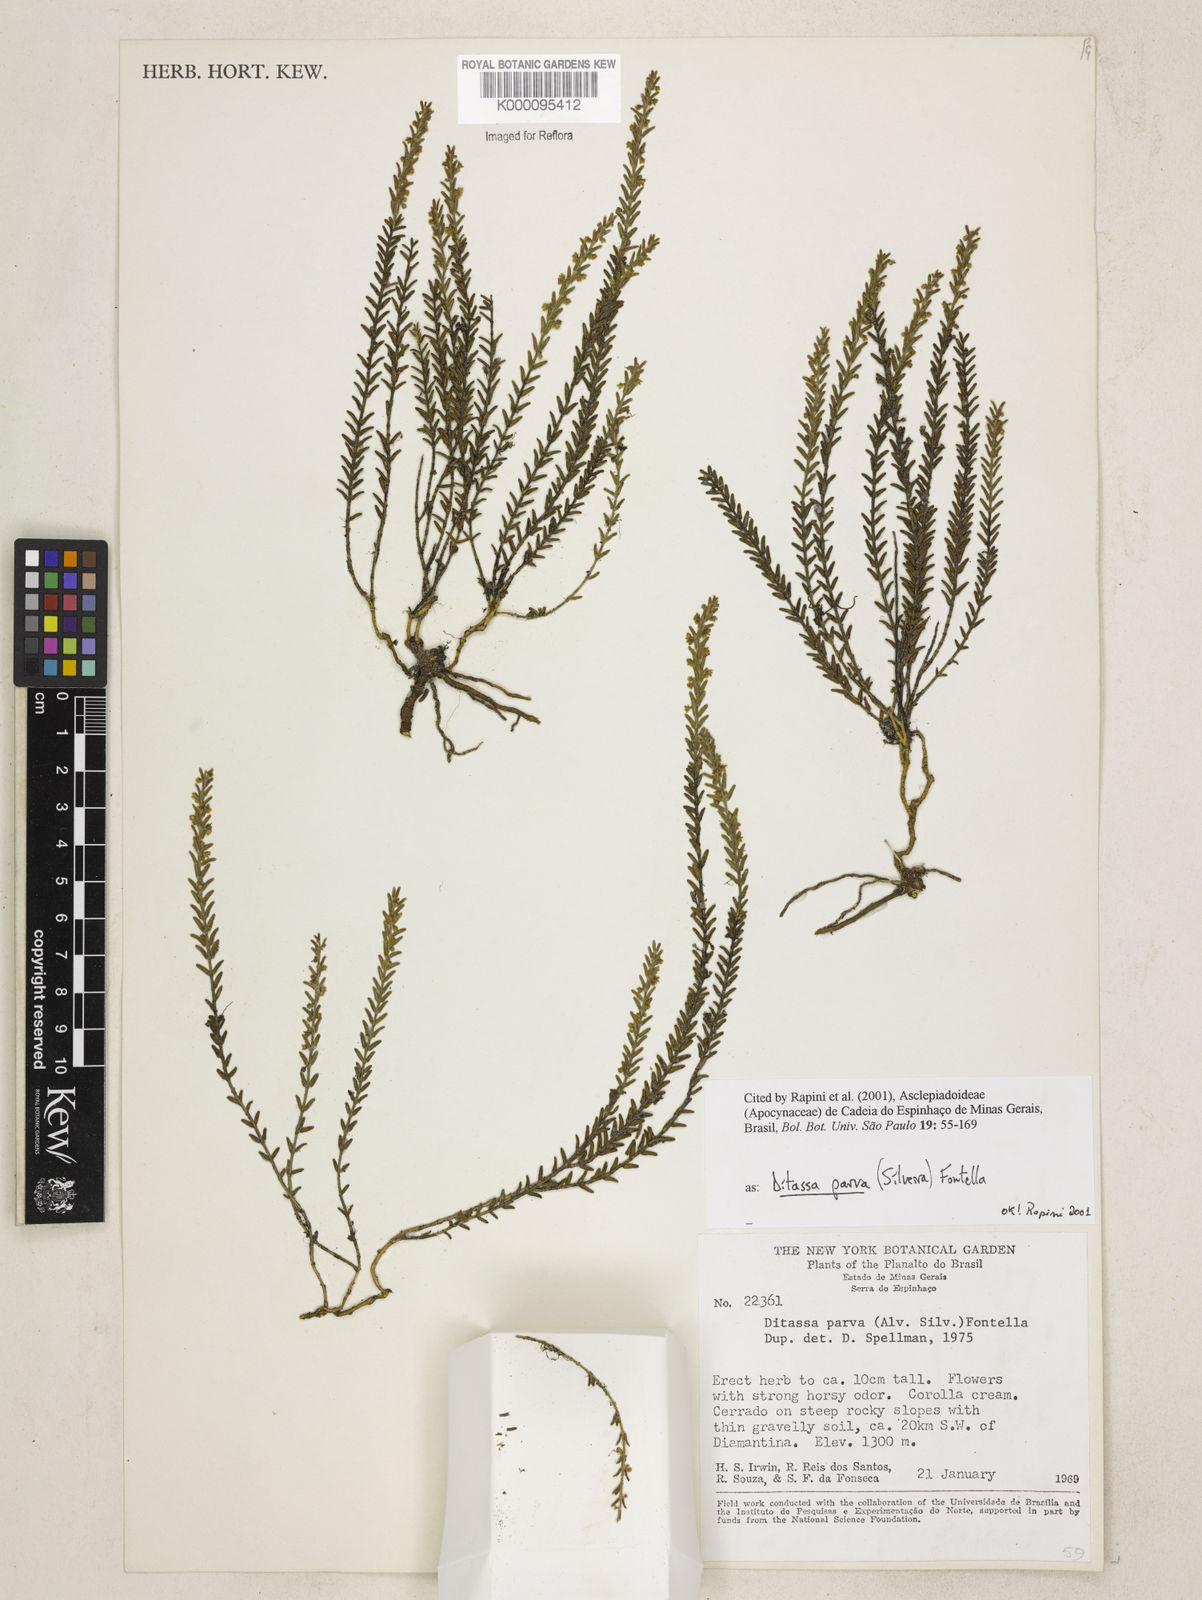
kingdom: Plantae
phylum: Tracheophyta
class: Magnoliopsida
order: Gentianales
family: Apocynaceae
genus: Minaria
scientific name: Minaria parva
